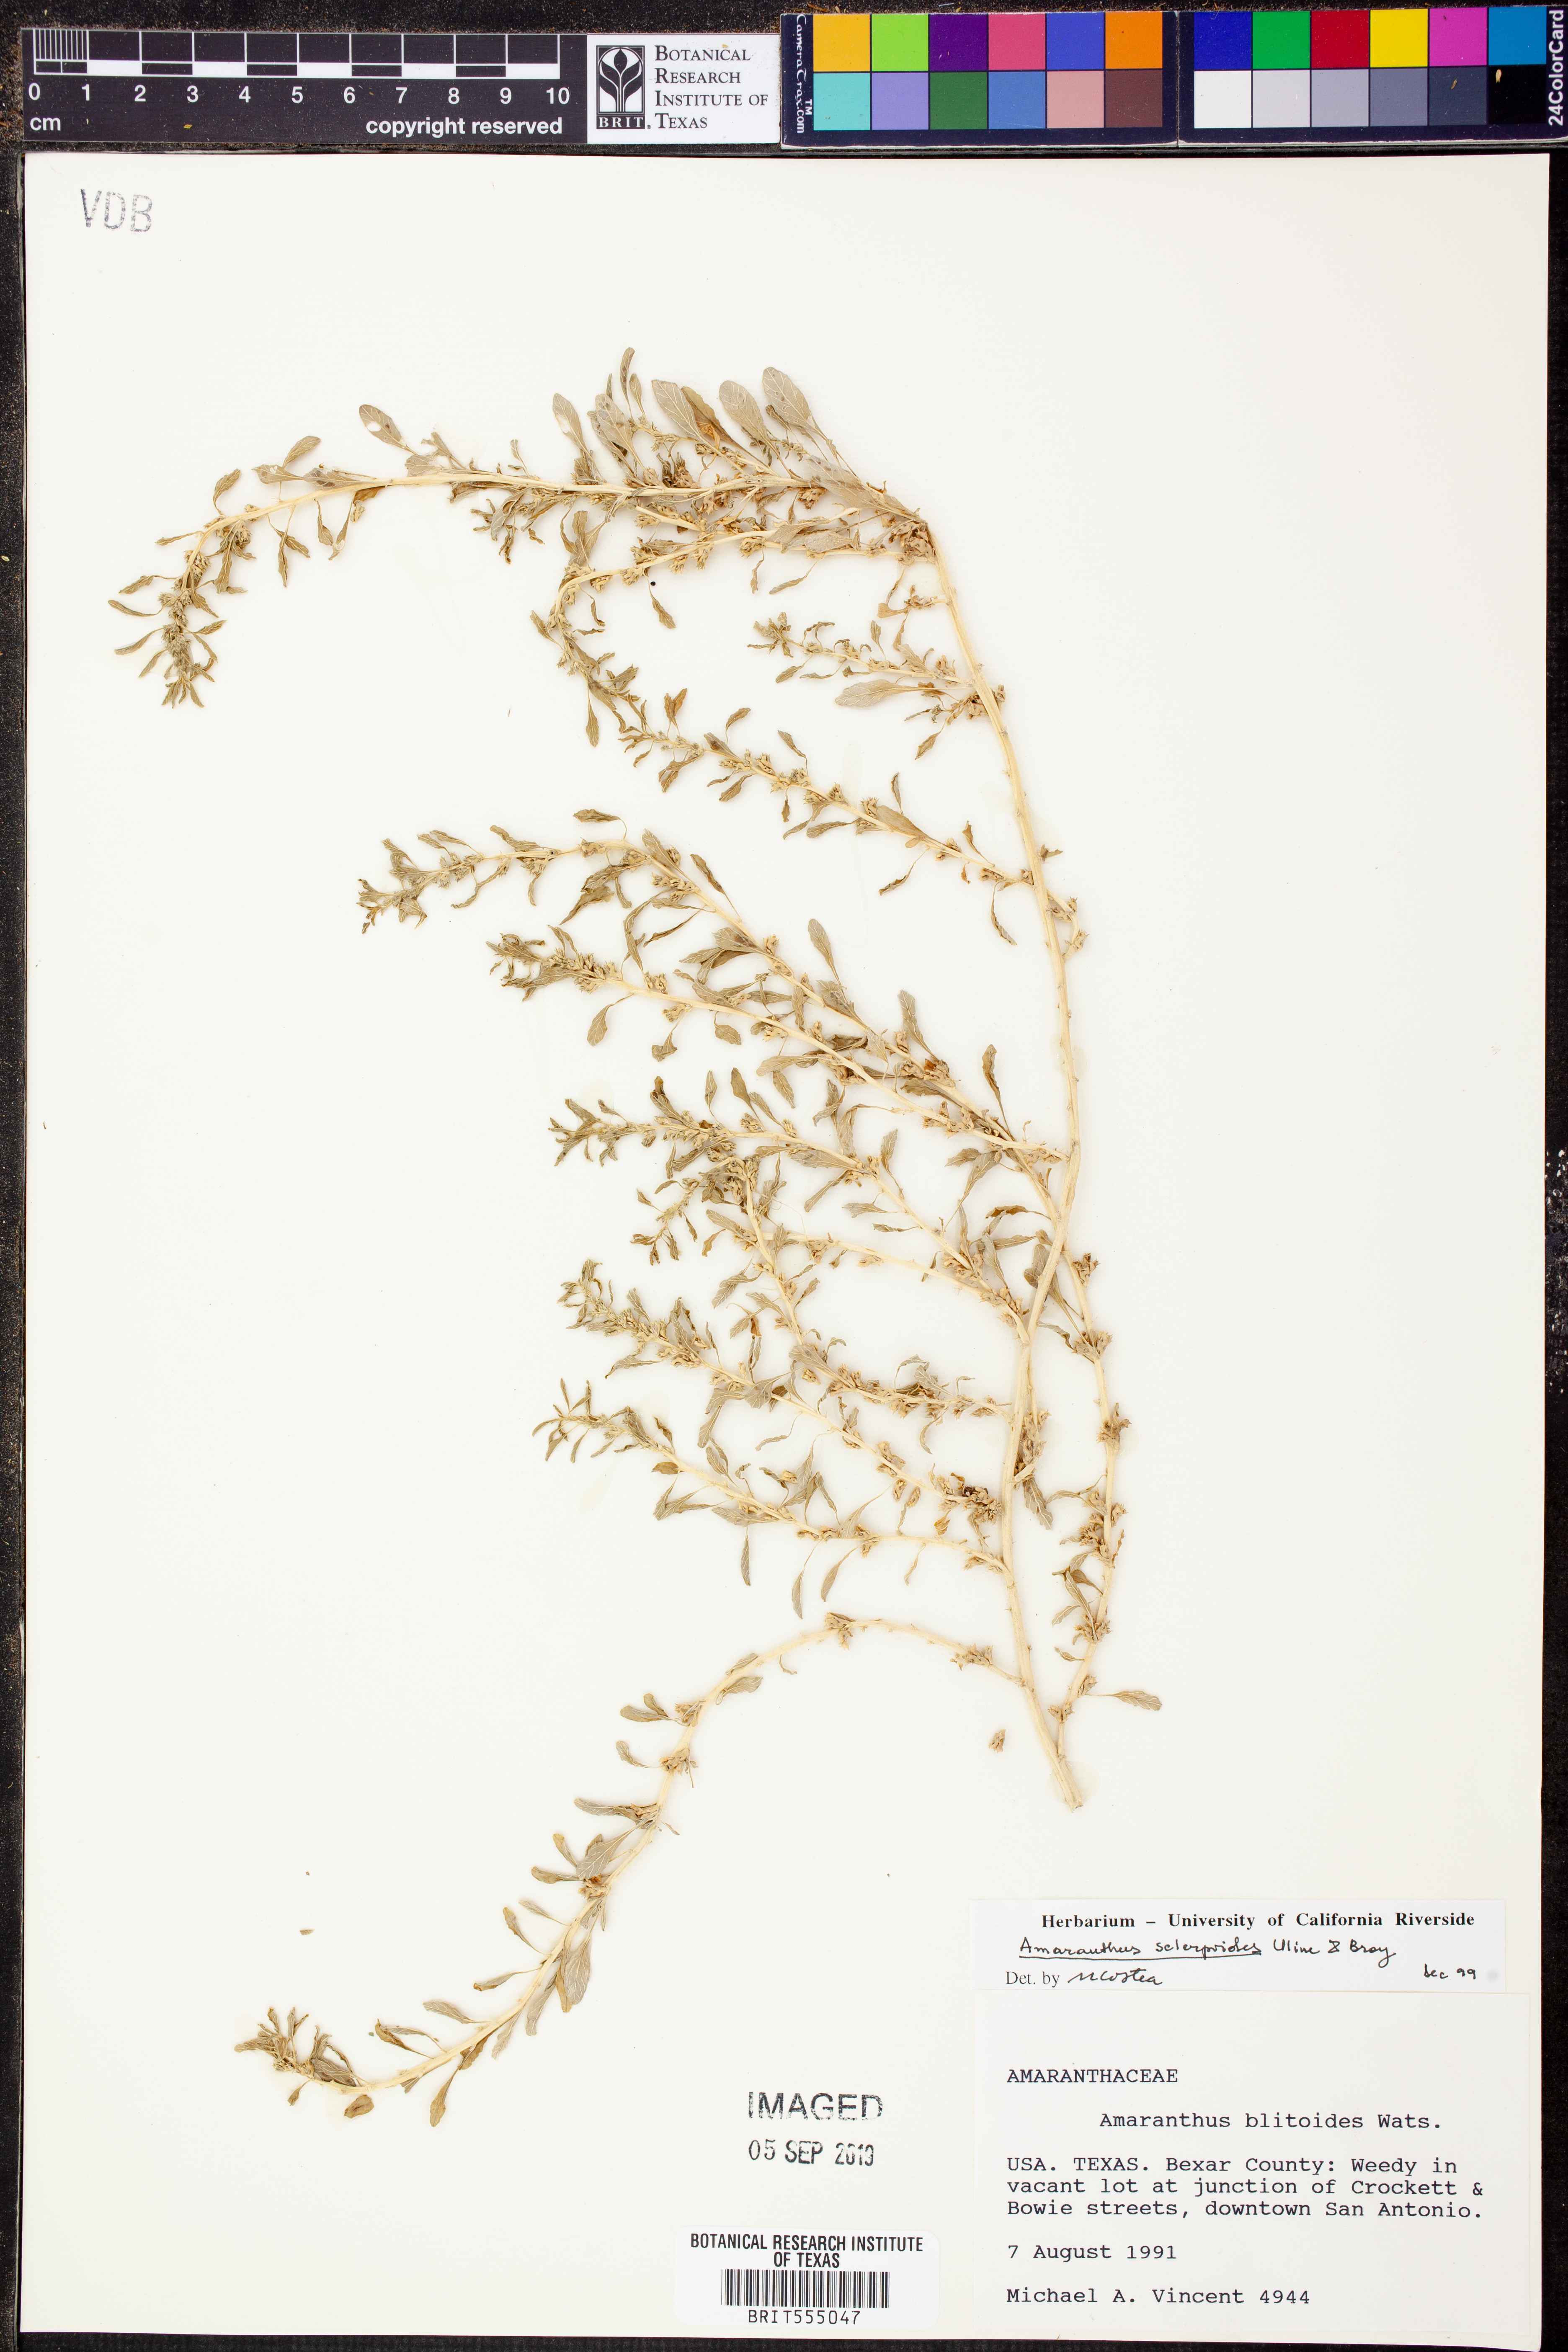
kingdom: Plantae
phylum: Tracheophyta
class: Magnoliopsida
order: Caryophyllales
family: Amaranthaceae
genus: Amaranthus
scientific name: Amaranthus scleropoides
